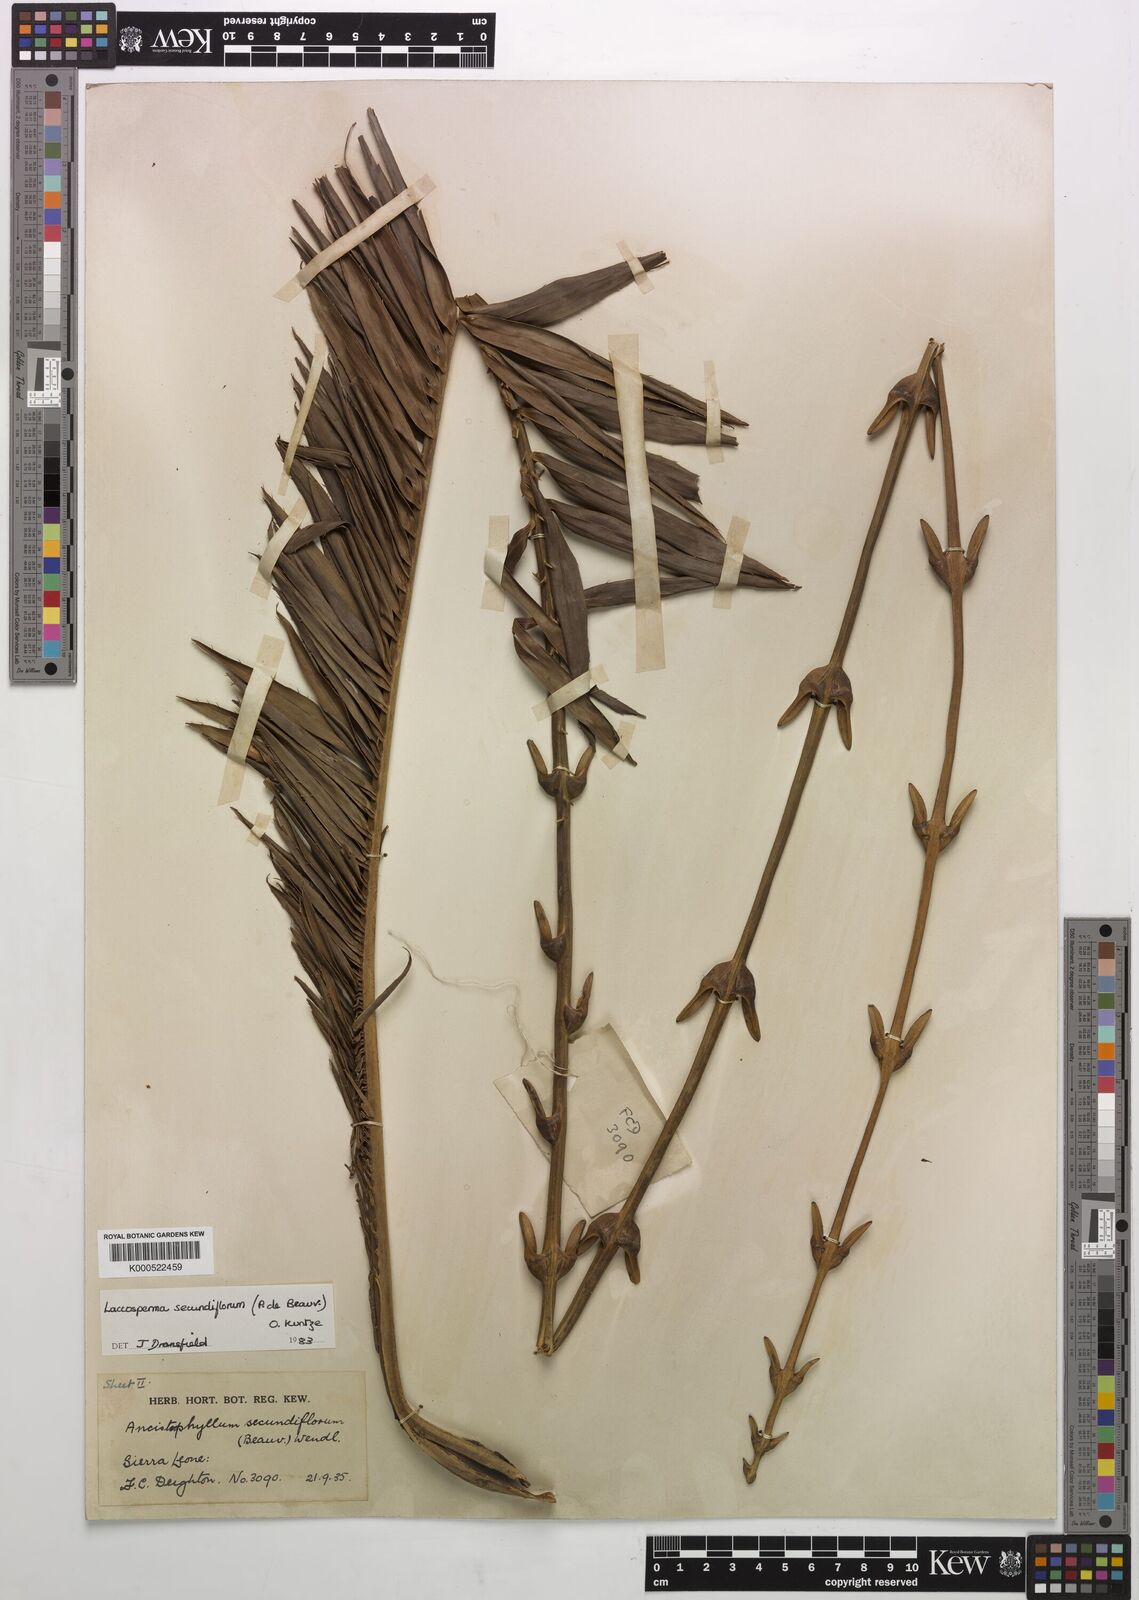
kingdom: Plantae
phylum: Tracheophyta
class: Liliopsida
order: Arecales
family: Arecaceae
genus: Laccosperma
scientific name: Laccosperma secundiflorum
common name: Rattan
